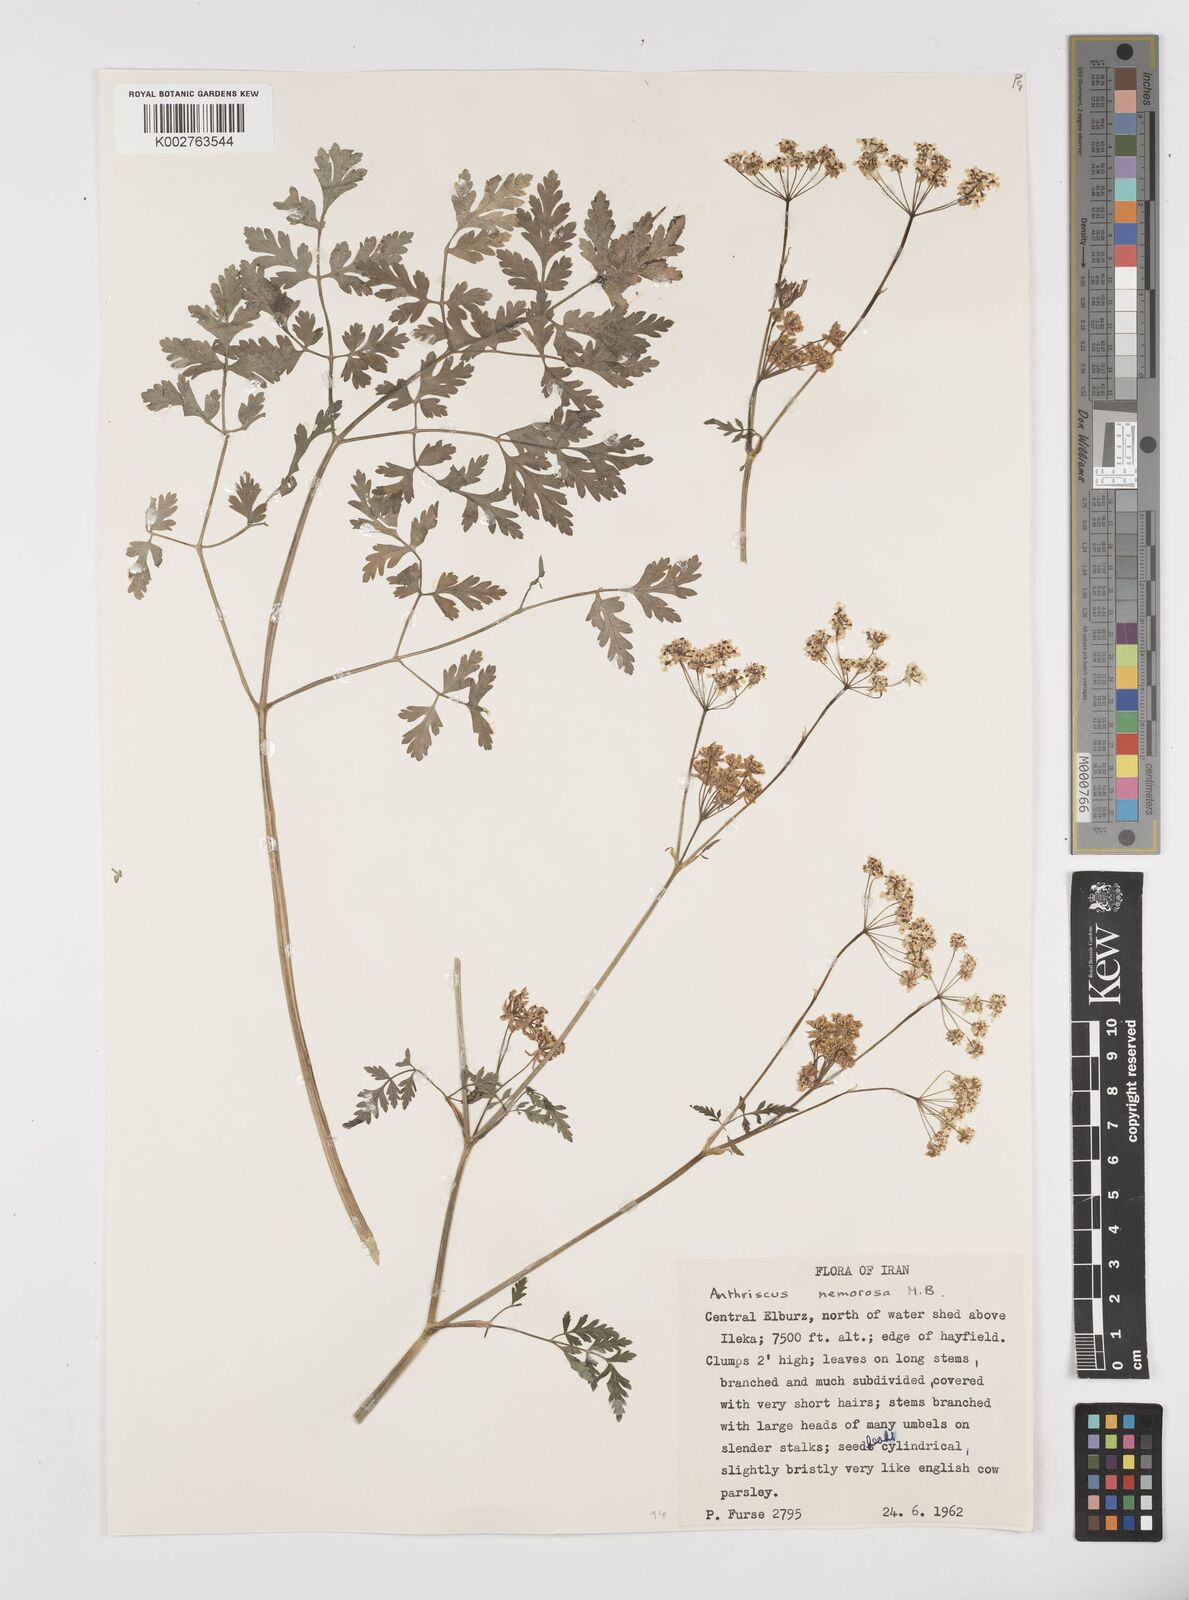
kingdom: Plantae
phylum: Tracheophyta
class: Magnoliopsida
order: Apiales
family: Apiaceae
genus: Anthriscus
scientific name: Anthriscus sylvestris
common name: Cow parsley
